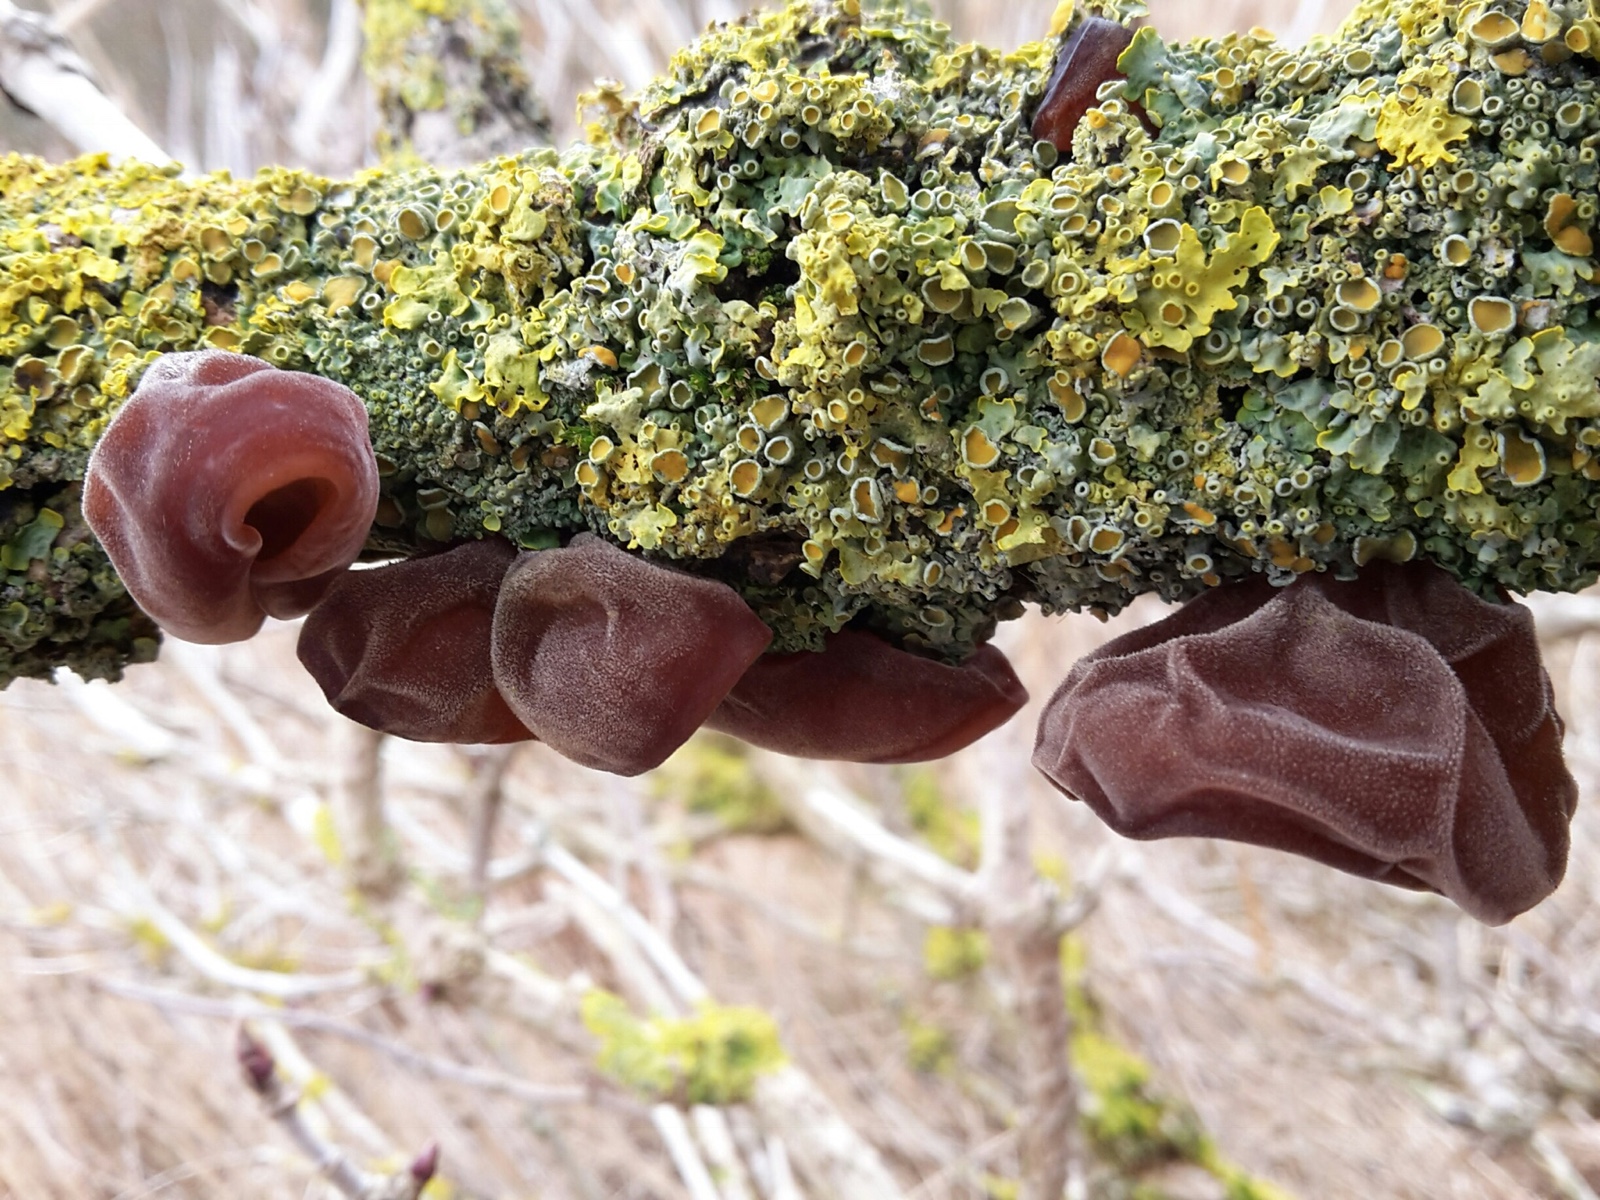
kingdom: Fungi
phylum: Basidiomycota
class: Agaricomycetes
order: Auriculariales
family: Auriculariaceae
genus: Auricularia
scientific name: Auricularia auricula-judae
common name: almindelig judasøre
